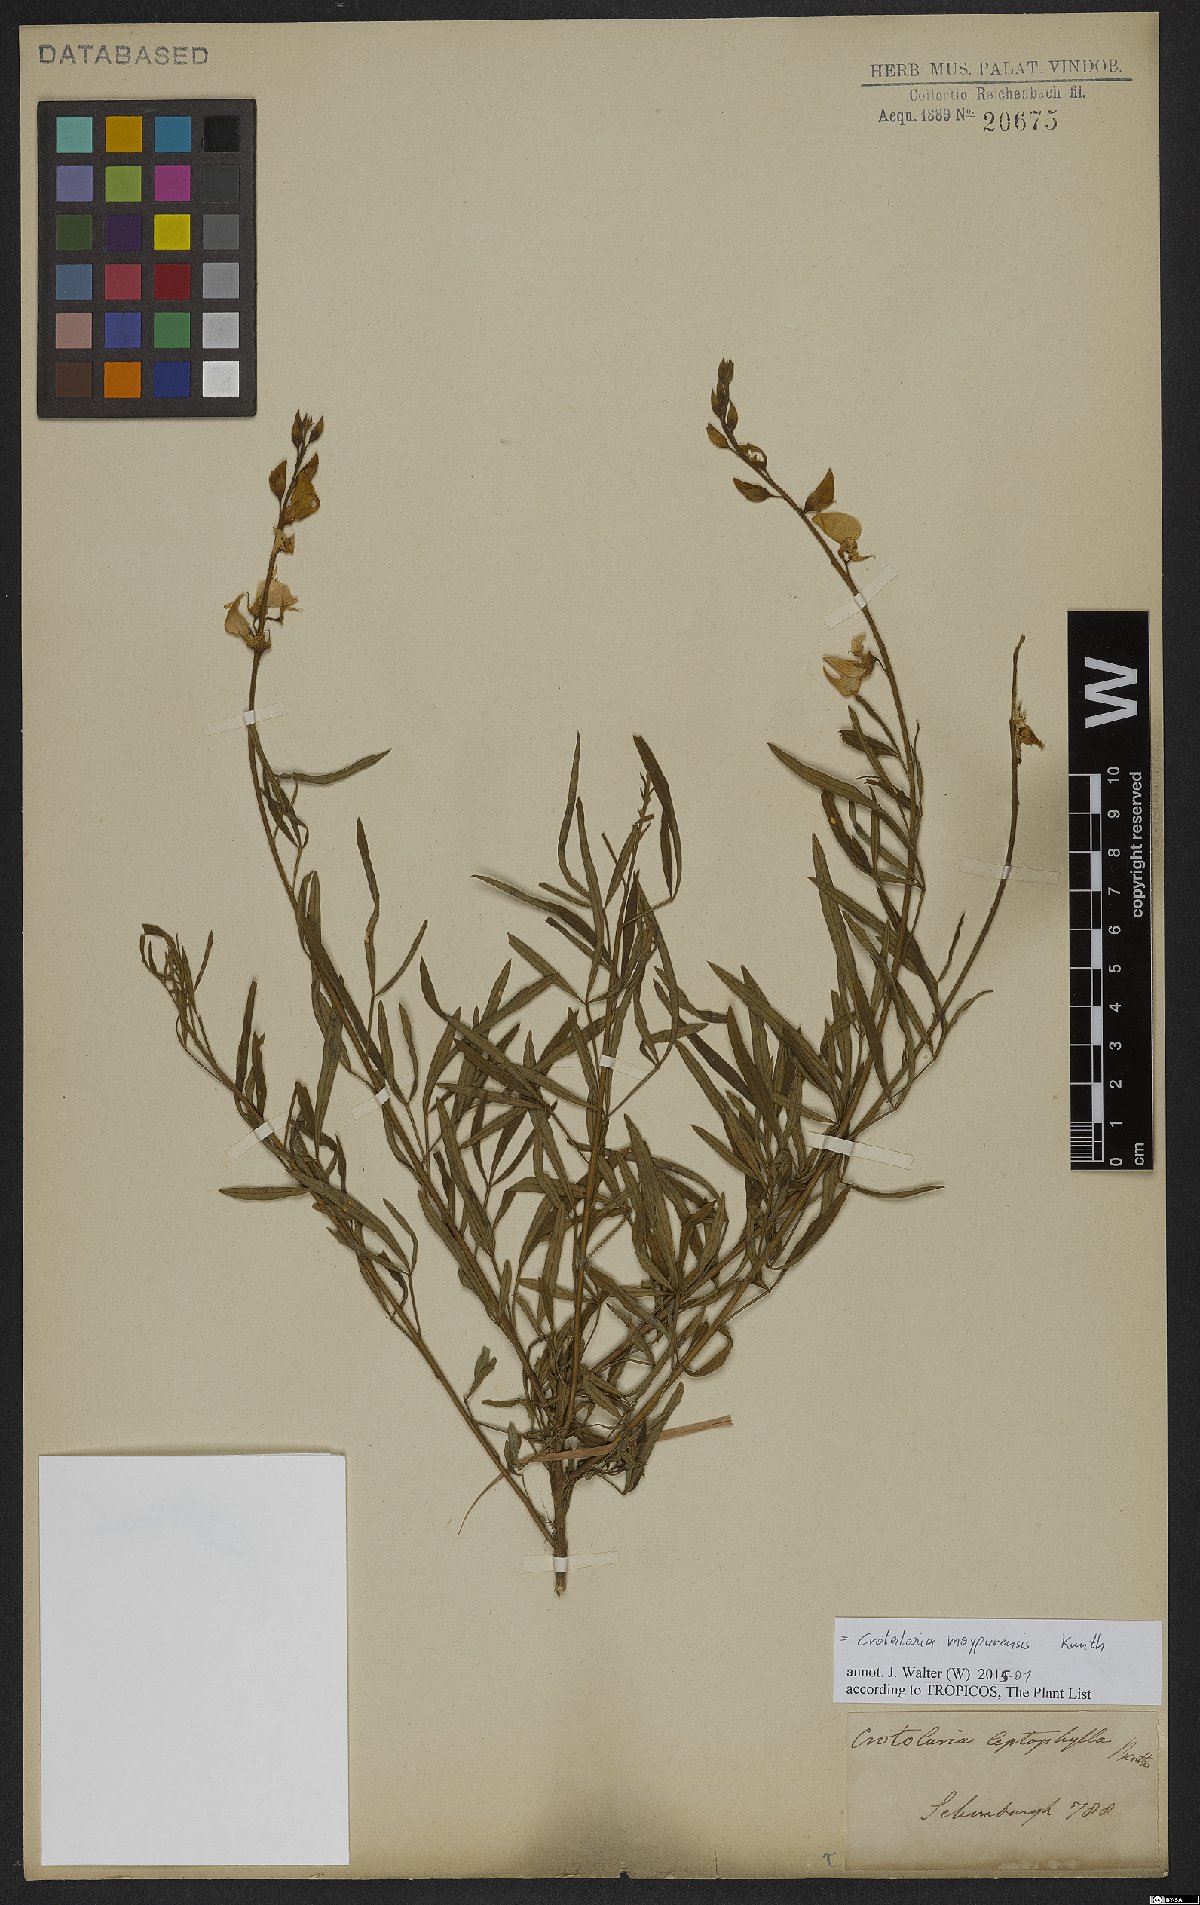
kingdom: Plantae
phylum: Tracheophyta
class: Magnoliopsida
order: Fabales
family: Fabaceae
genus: Crotalaria
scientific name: Crotalaria maypurensis
